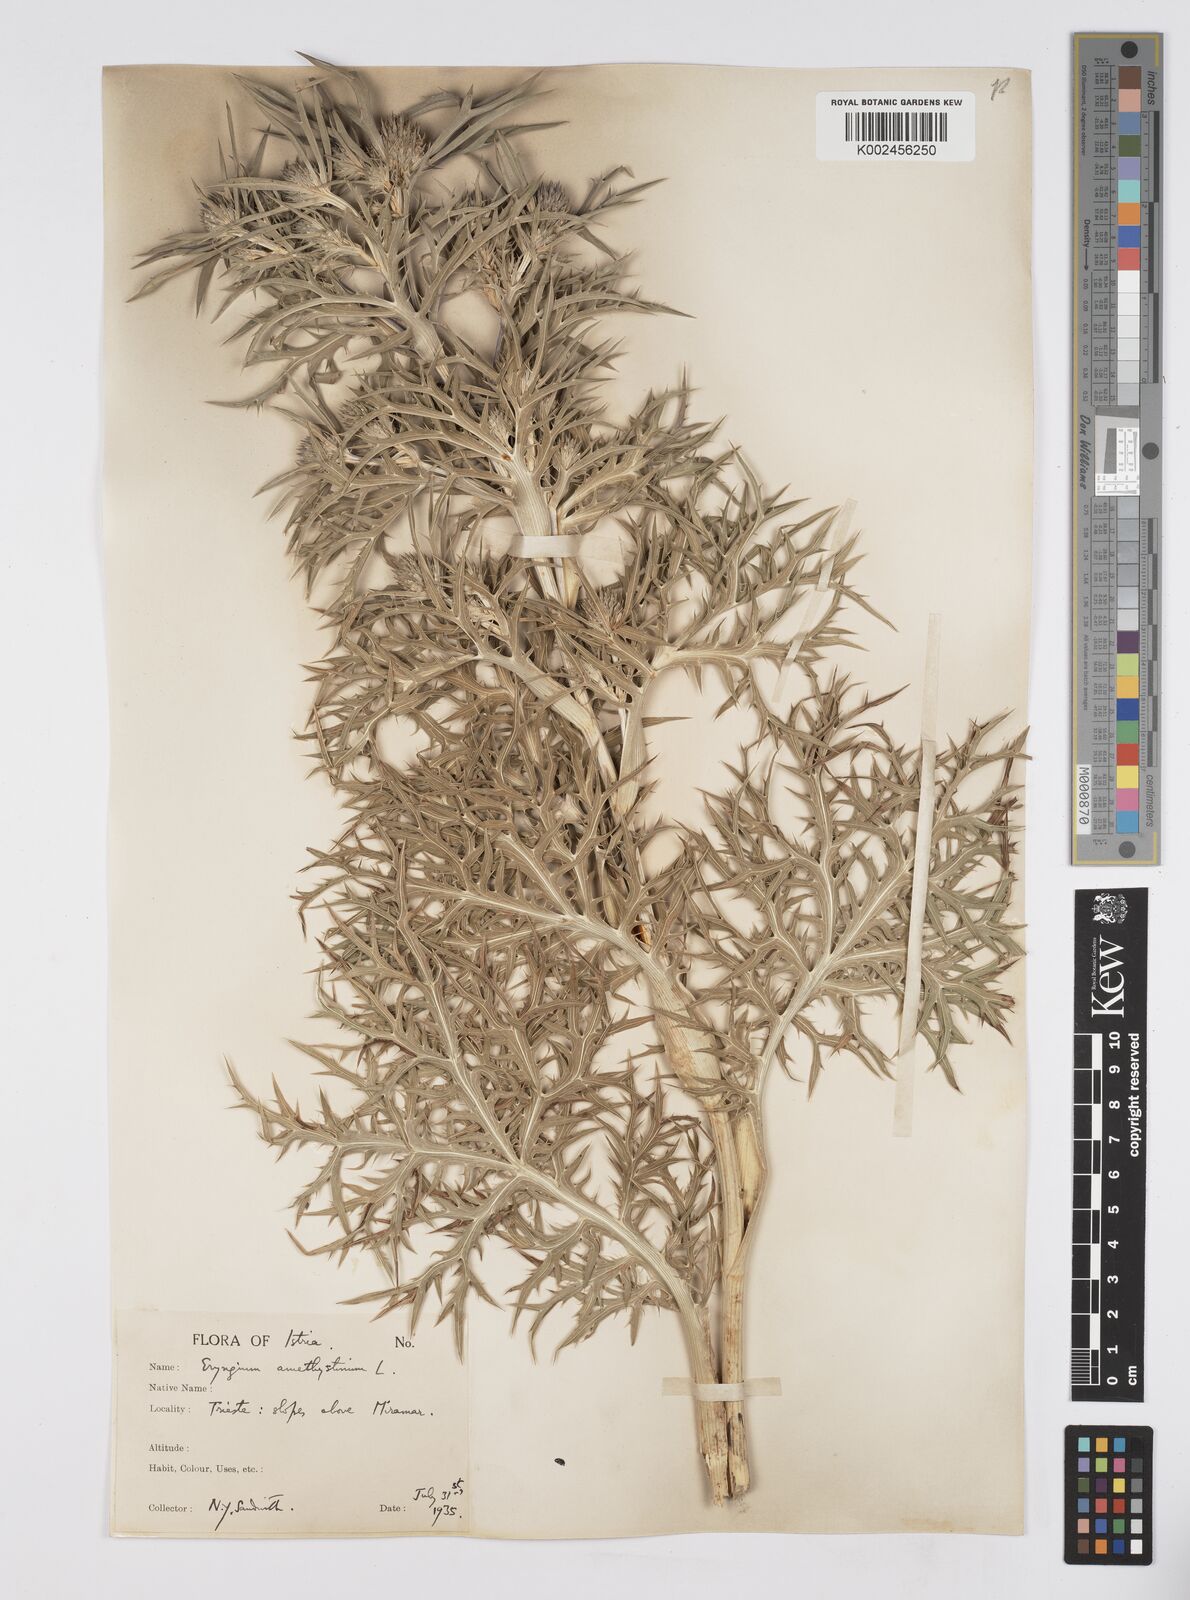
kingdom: Plantae
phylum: Tracheophyta
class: Magnoliopsida
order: Apiales
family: Apiaceae
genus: Eryngium
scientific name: Eryngium amethystinum
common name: Amethyst eryngo
